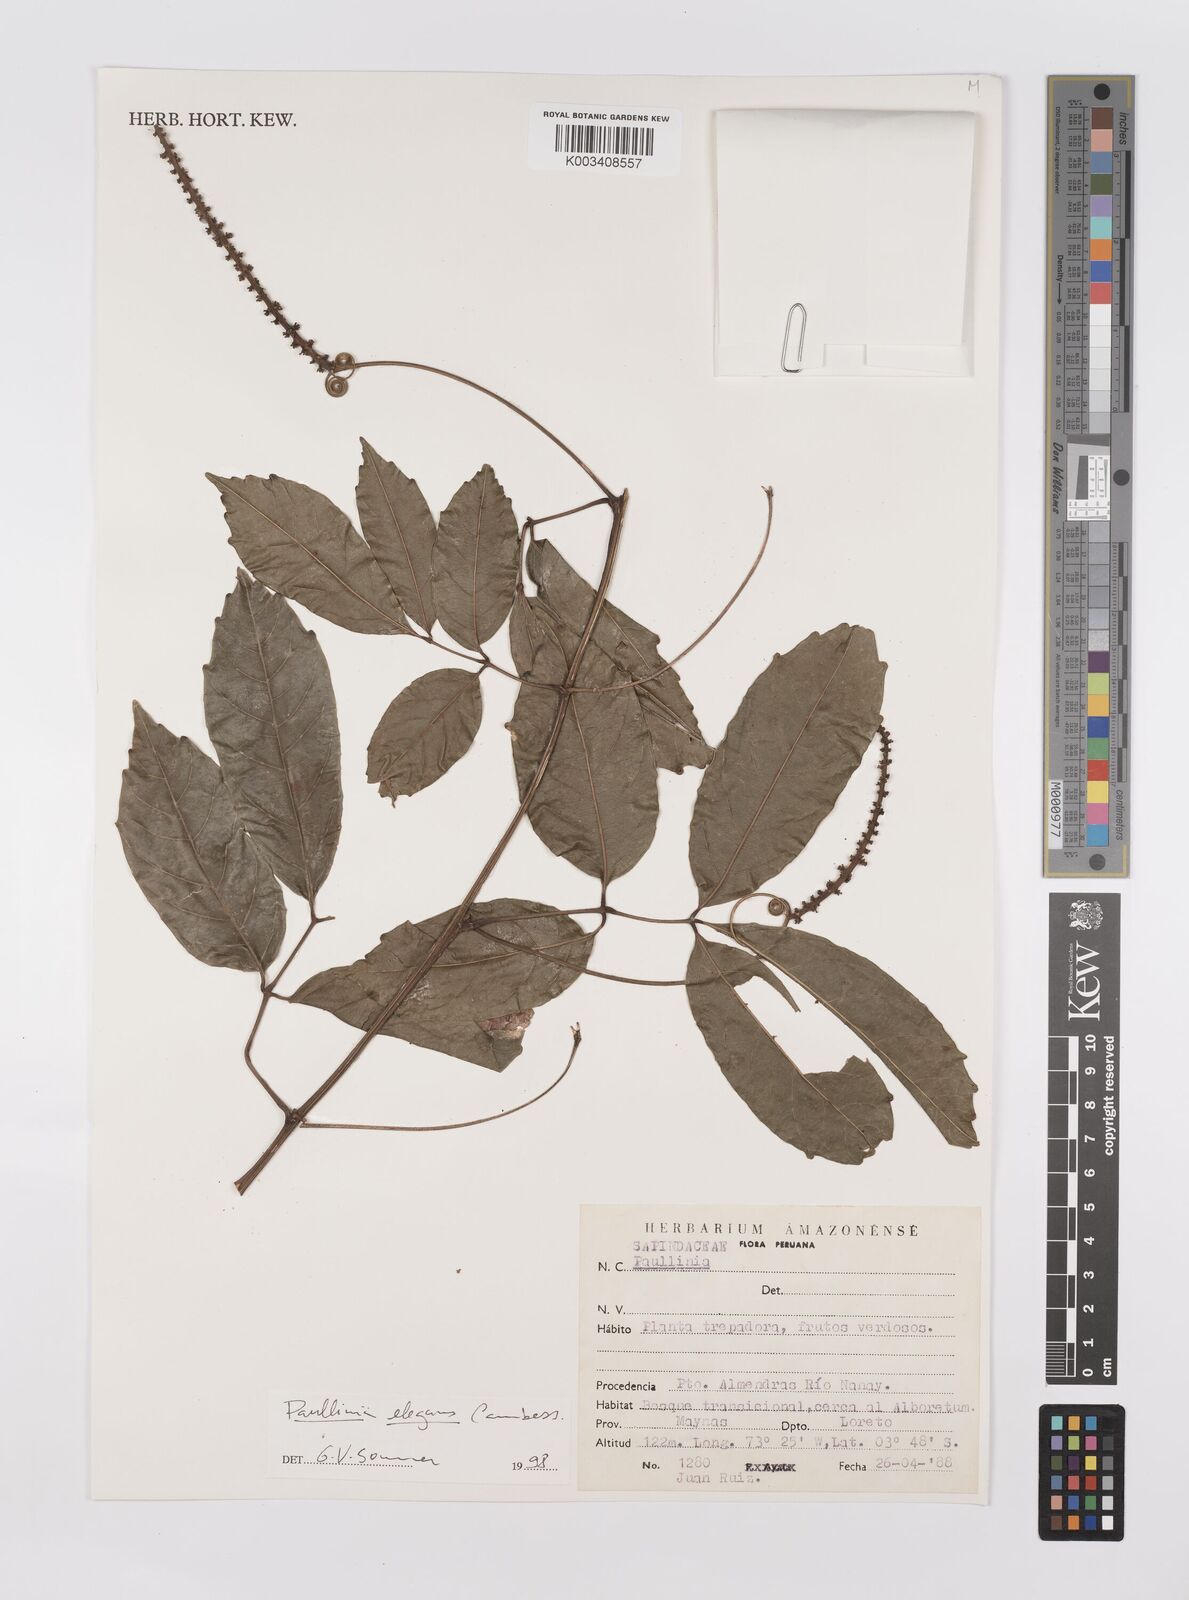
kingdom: Plantae
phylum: Tracheophyta
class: Magnoliopsida
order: Sapindales
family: Sapindaceae
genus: Paullinia
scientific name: Paullinia elegans
